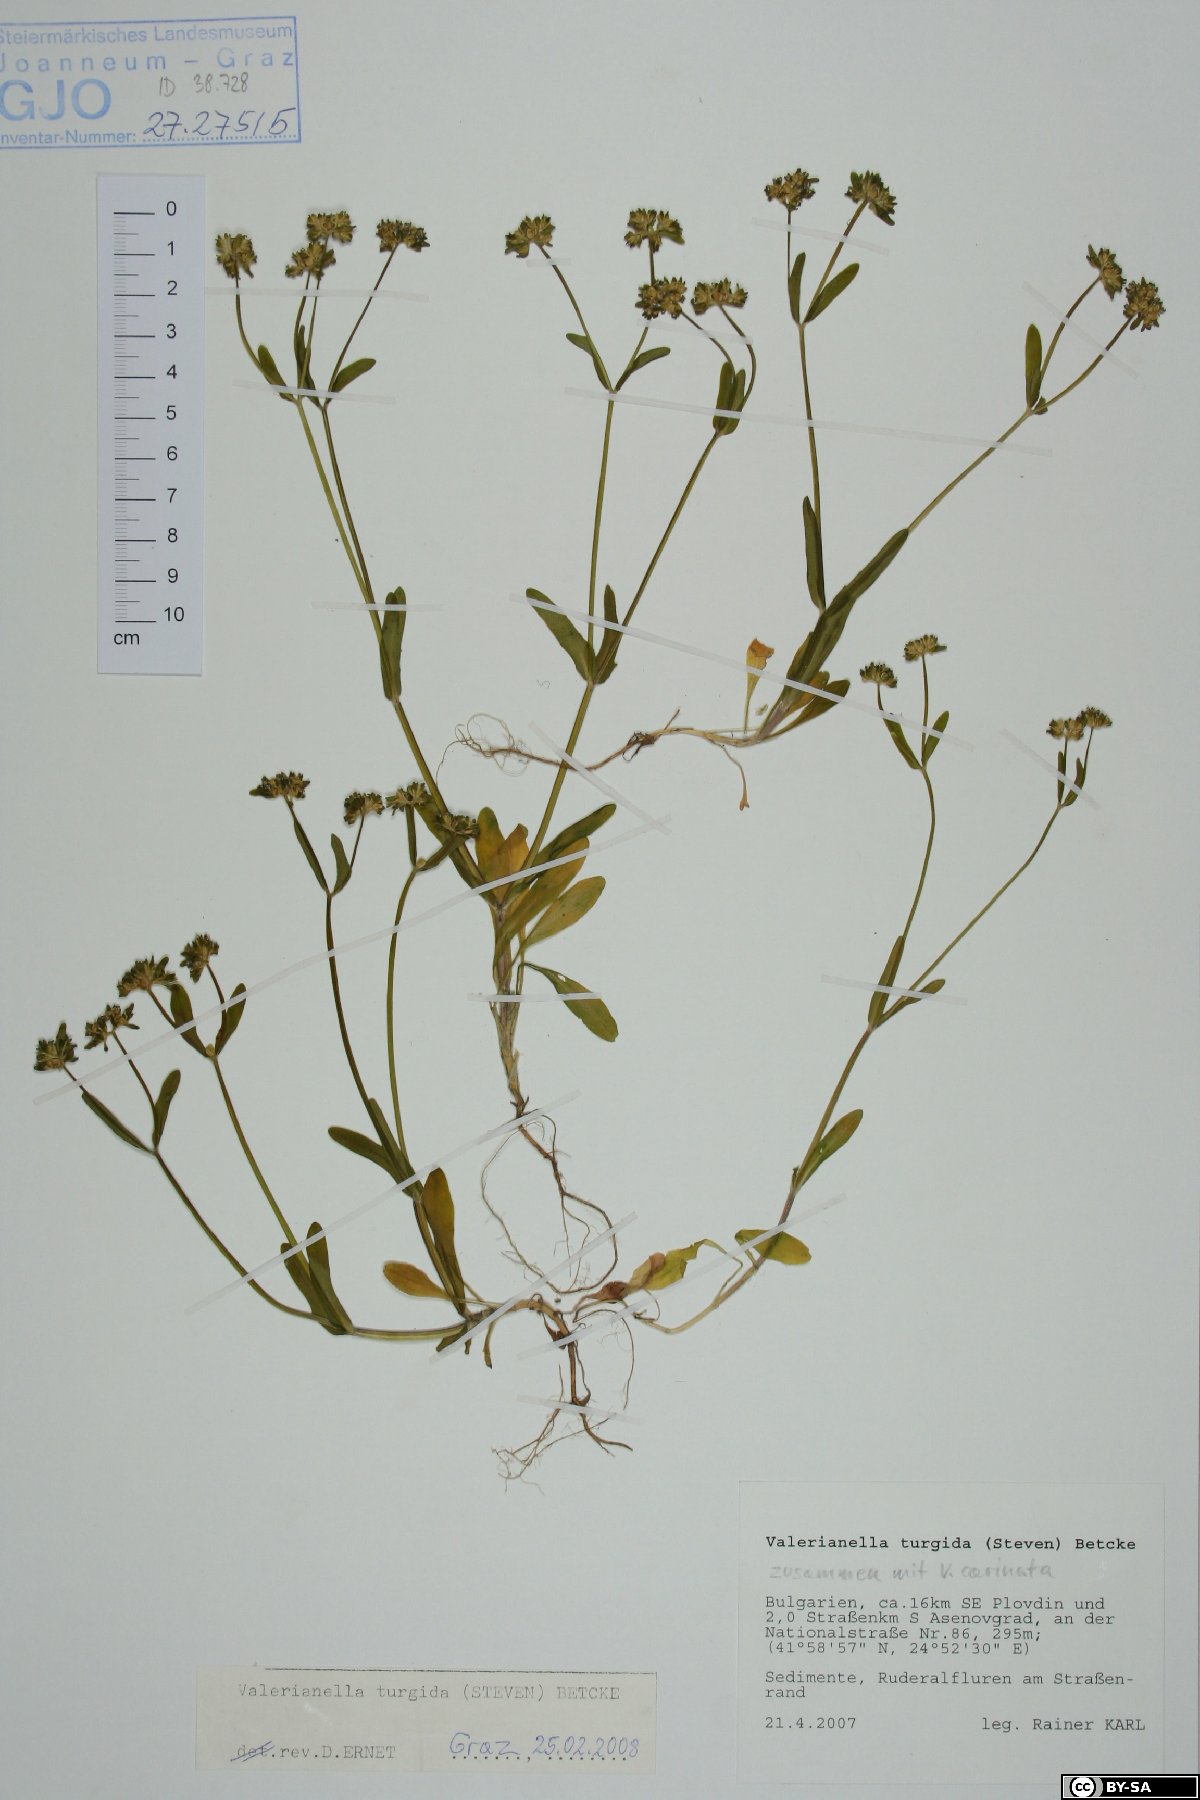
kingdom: Plantae
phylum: Tracheophyta
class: Magnoliopsida
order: Dipsacales
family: Caprifoliaceae
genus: Valerianella
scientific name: Valerianella turgida
